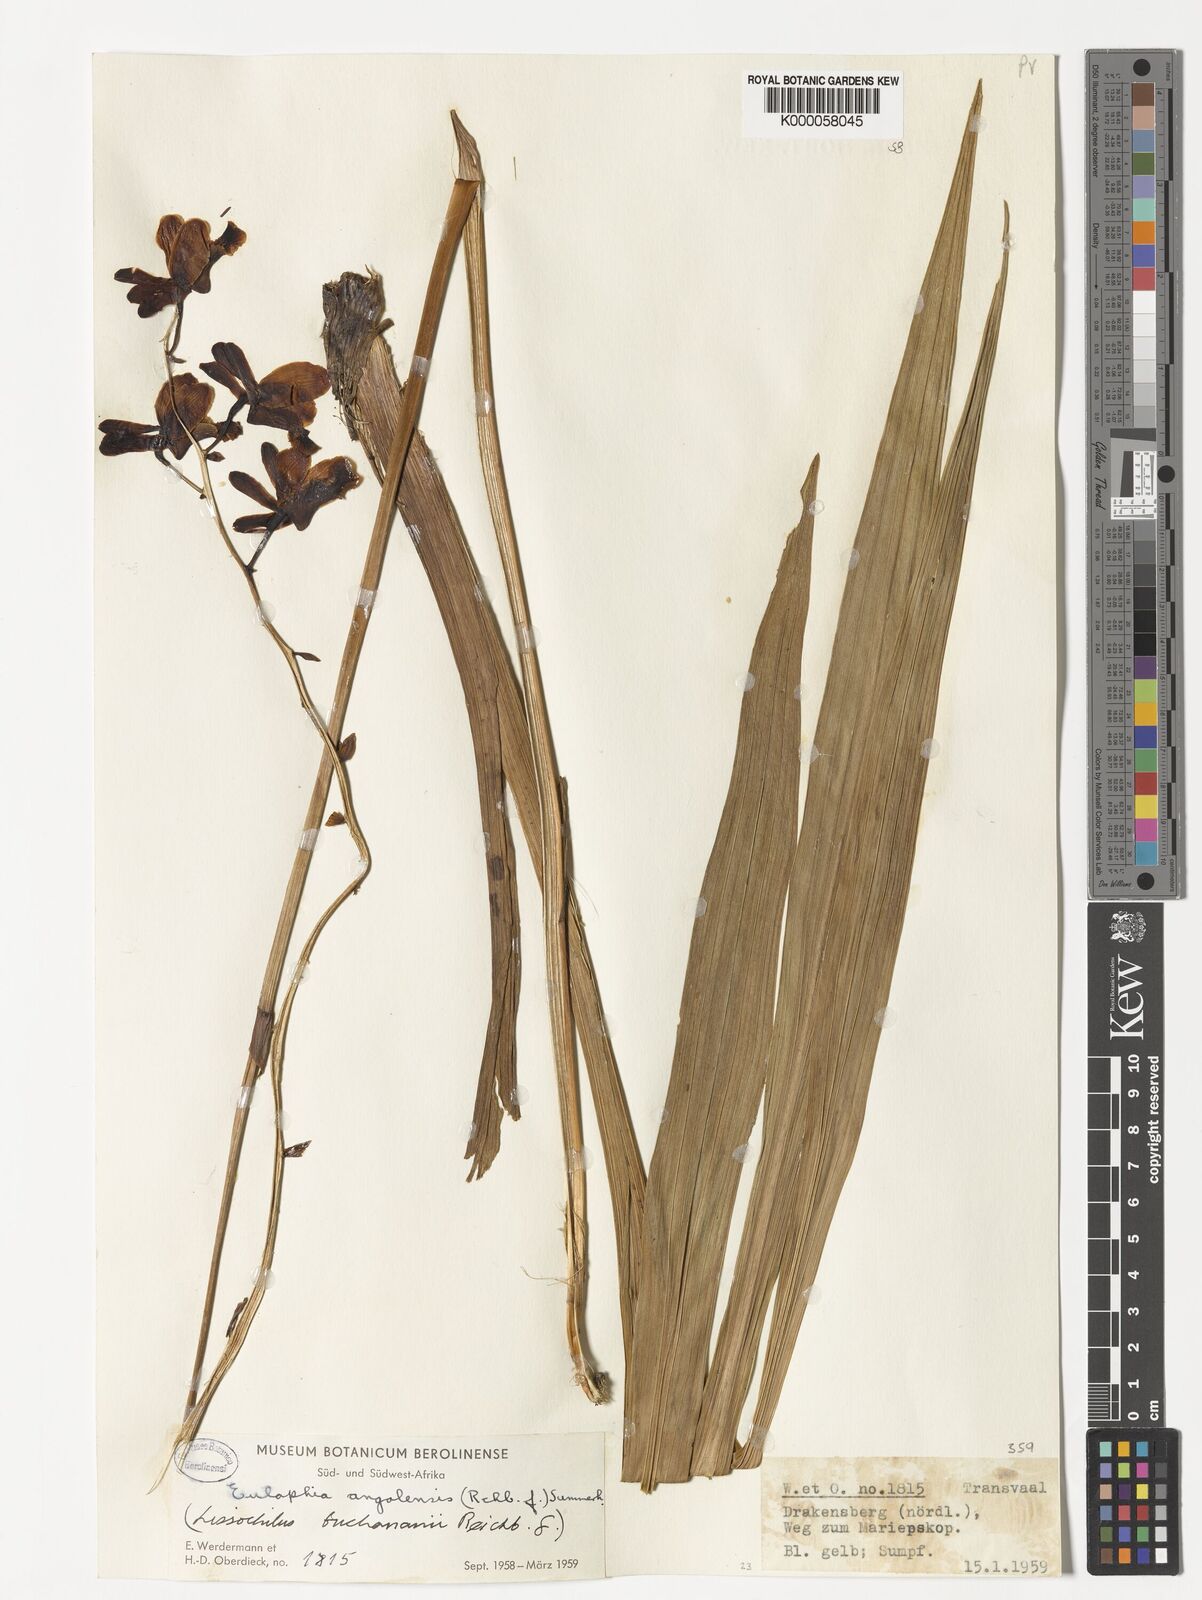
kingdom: Plantae
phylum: Tracheophyta
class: Liliopsida
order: Asparagales
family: Orchidaceae
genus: Eulophia
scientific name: Eulophia angolensis
